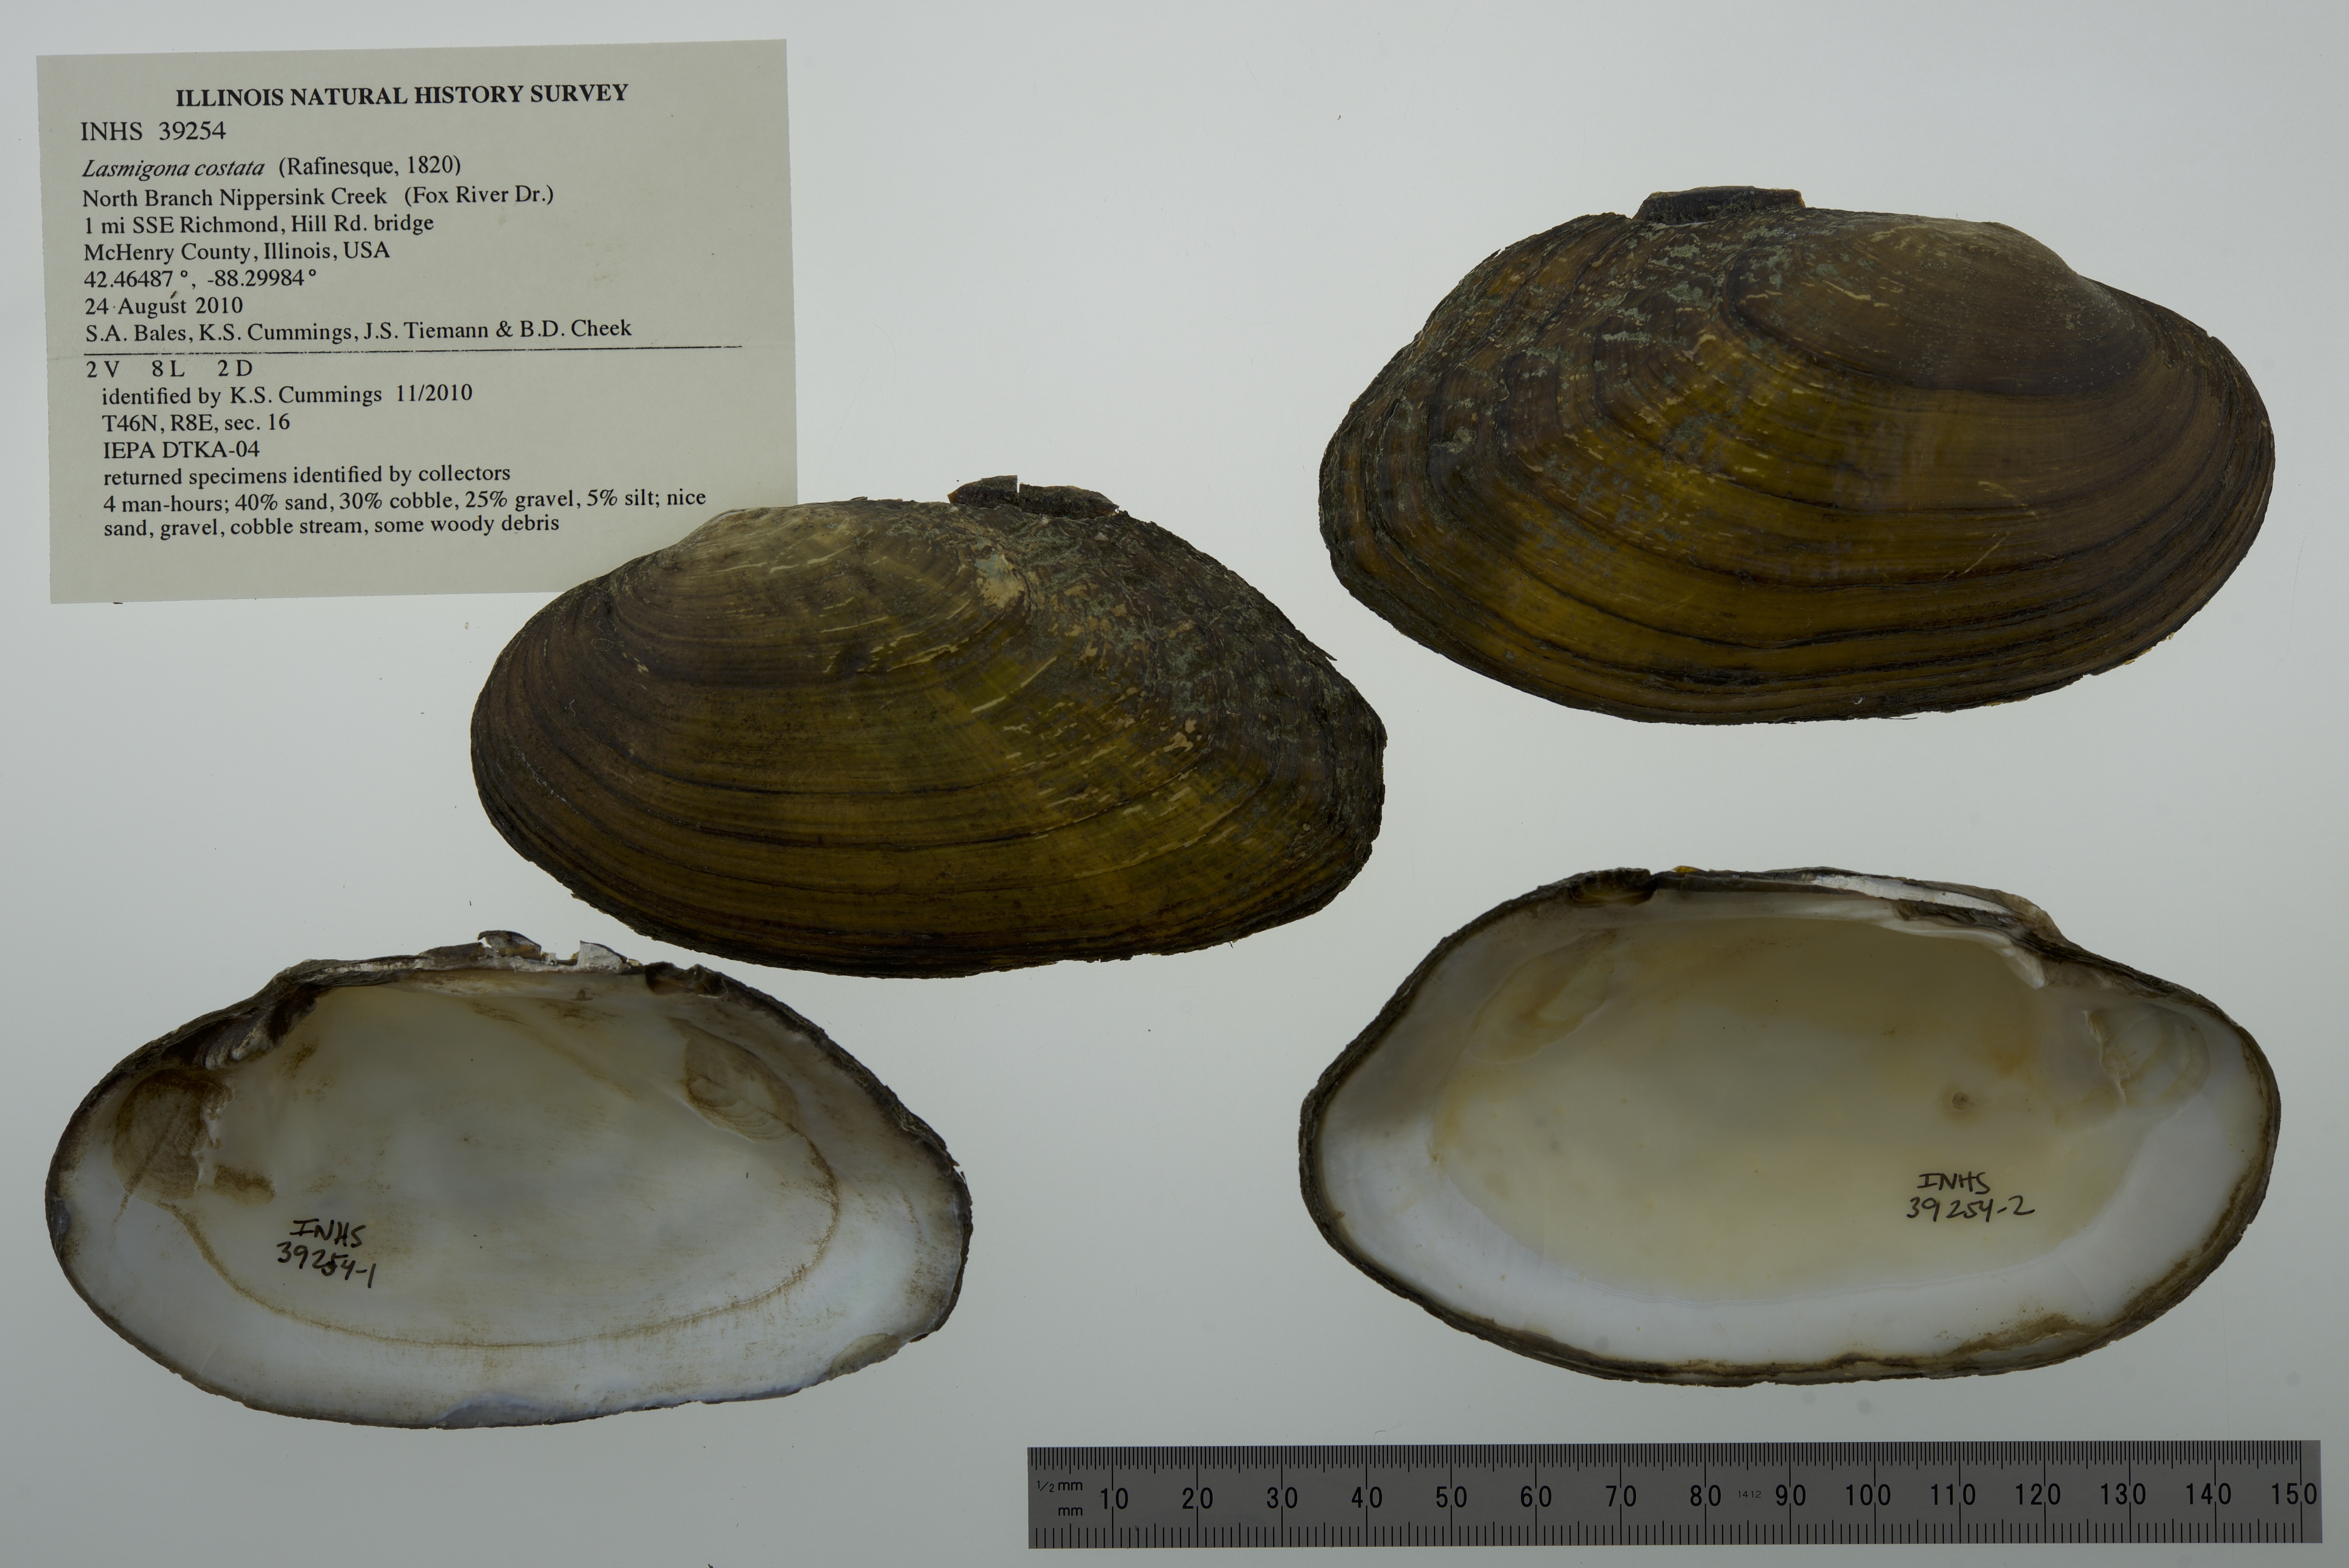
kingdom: Animalia
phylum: Mollusca
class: Bivalvia
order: Unionida
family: Unionidae
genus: Lasmigona
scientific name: Lasmigona costata
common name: Flutedshell
